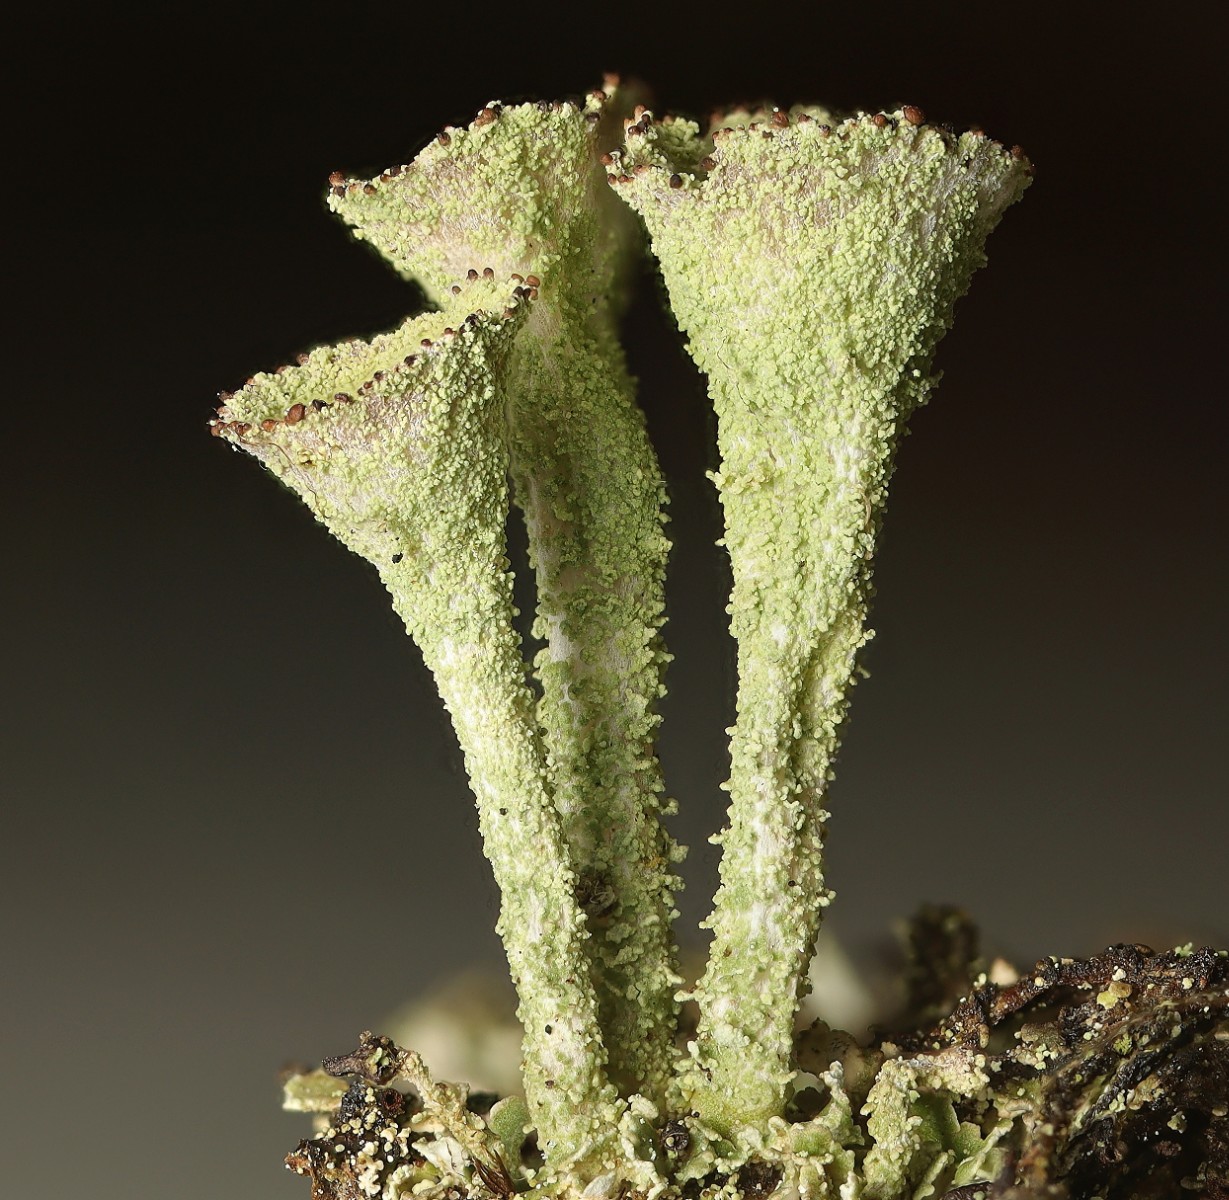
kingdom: Fungi
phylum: Ascomycota
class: Lecanoromycetes
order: Lecanorales
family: Cladoniaceae
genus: Cladonia
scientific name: Cladonia carneola
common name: gulgrøn bægerlav
